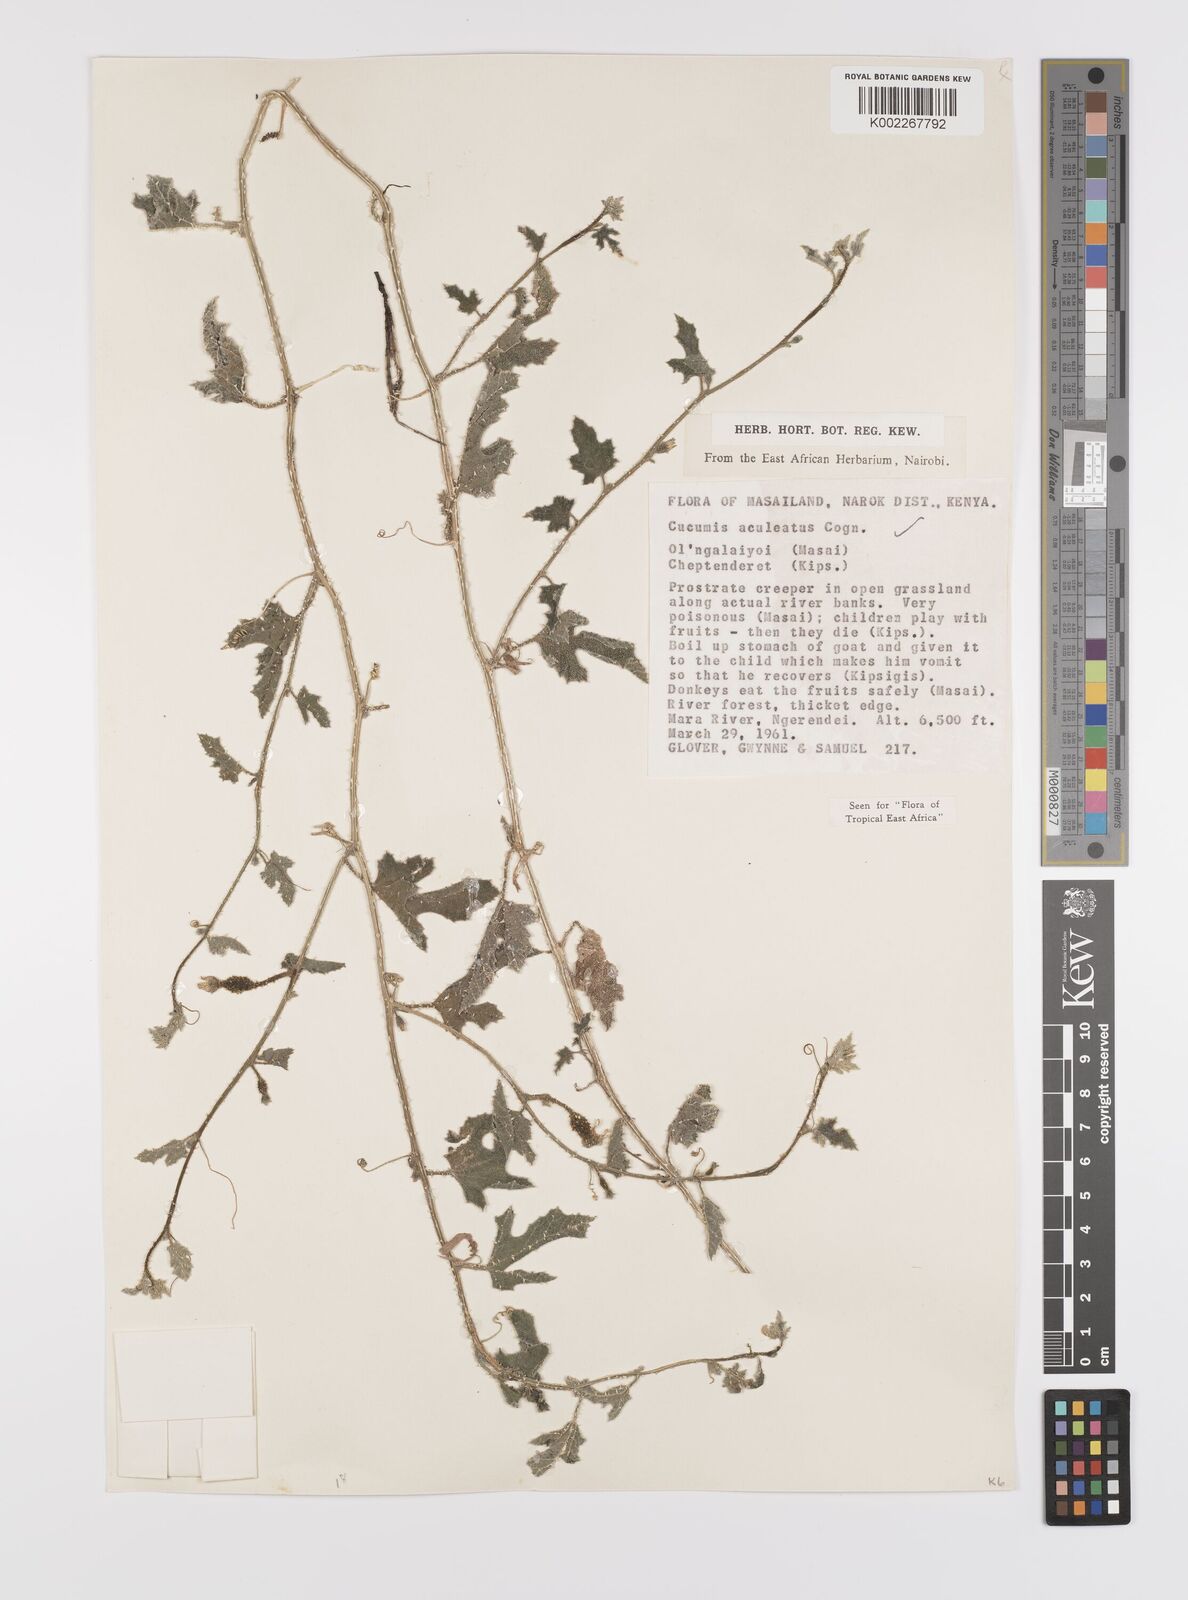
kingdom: Plantae
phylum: Tracheophyta
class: Magnoliopsida
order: Cucurbitales
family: Cucurbitaceae
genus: Cucumis
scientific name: Cucumis aculeatus
